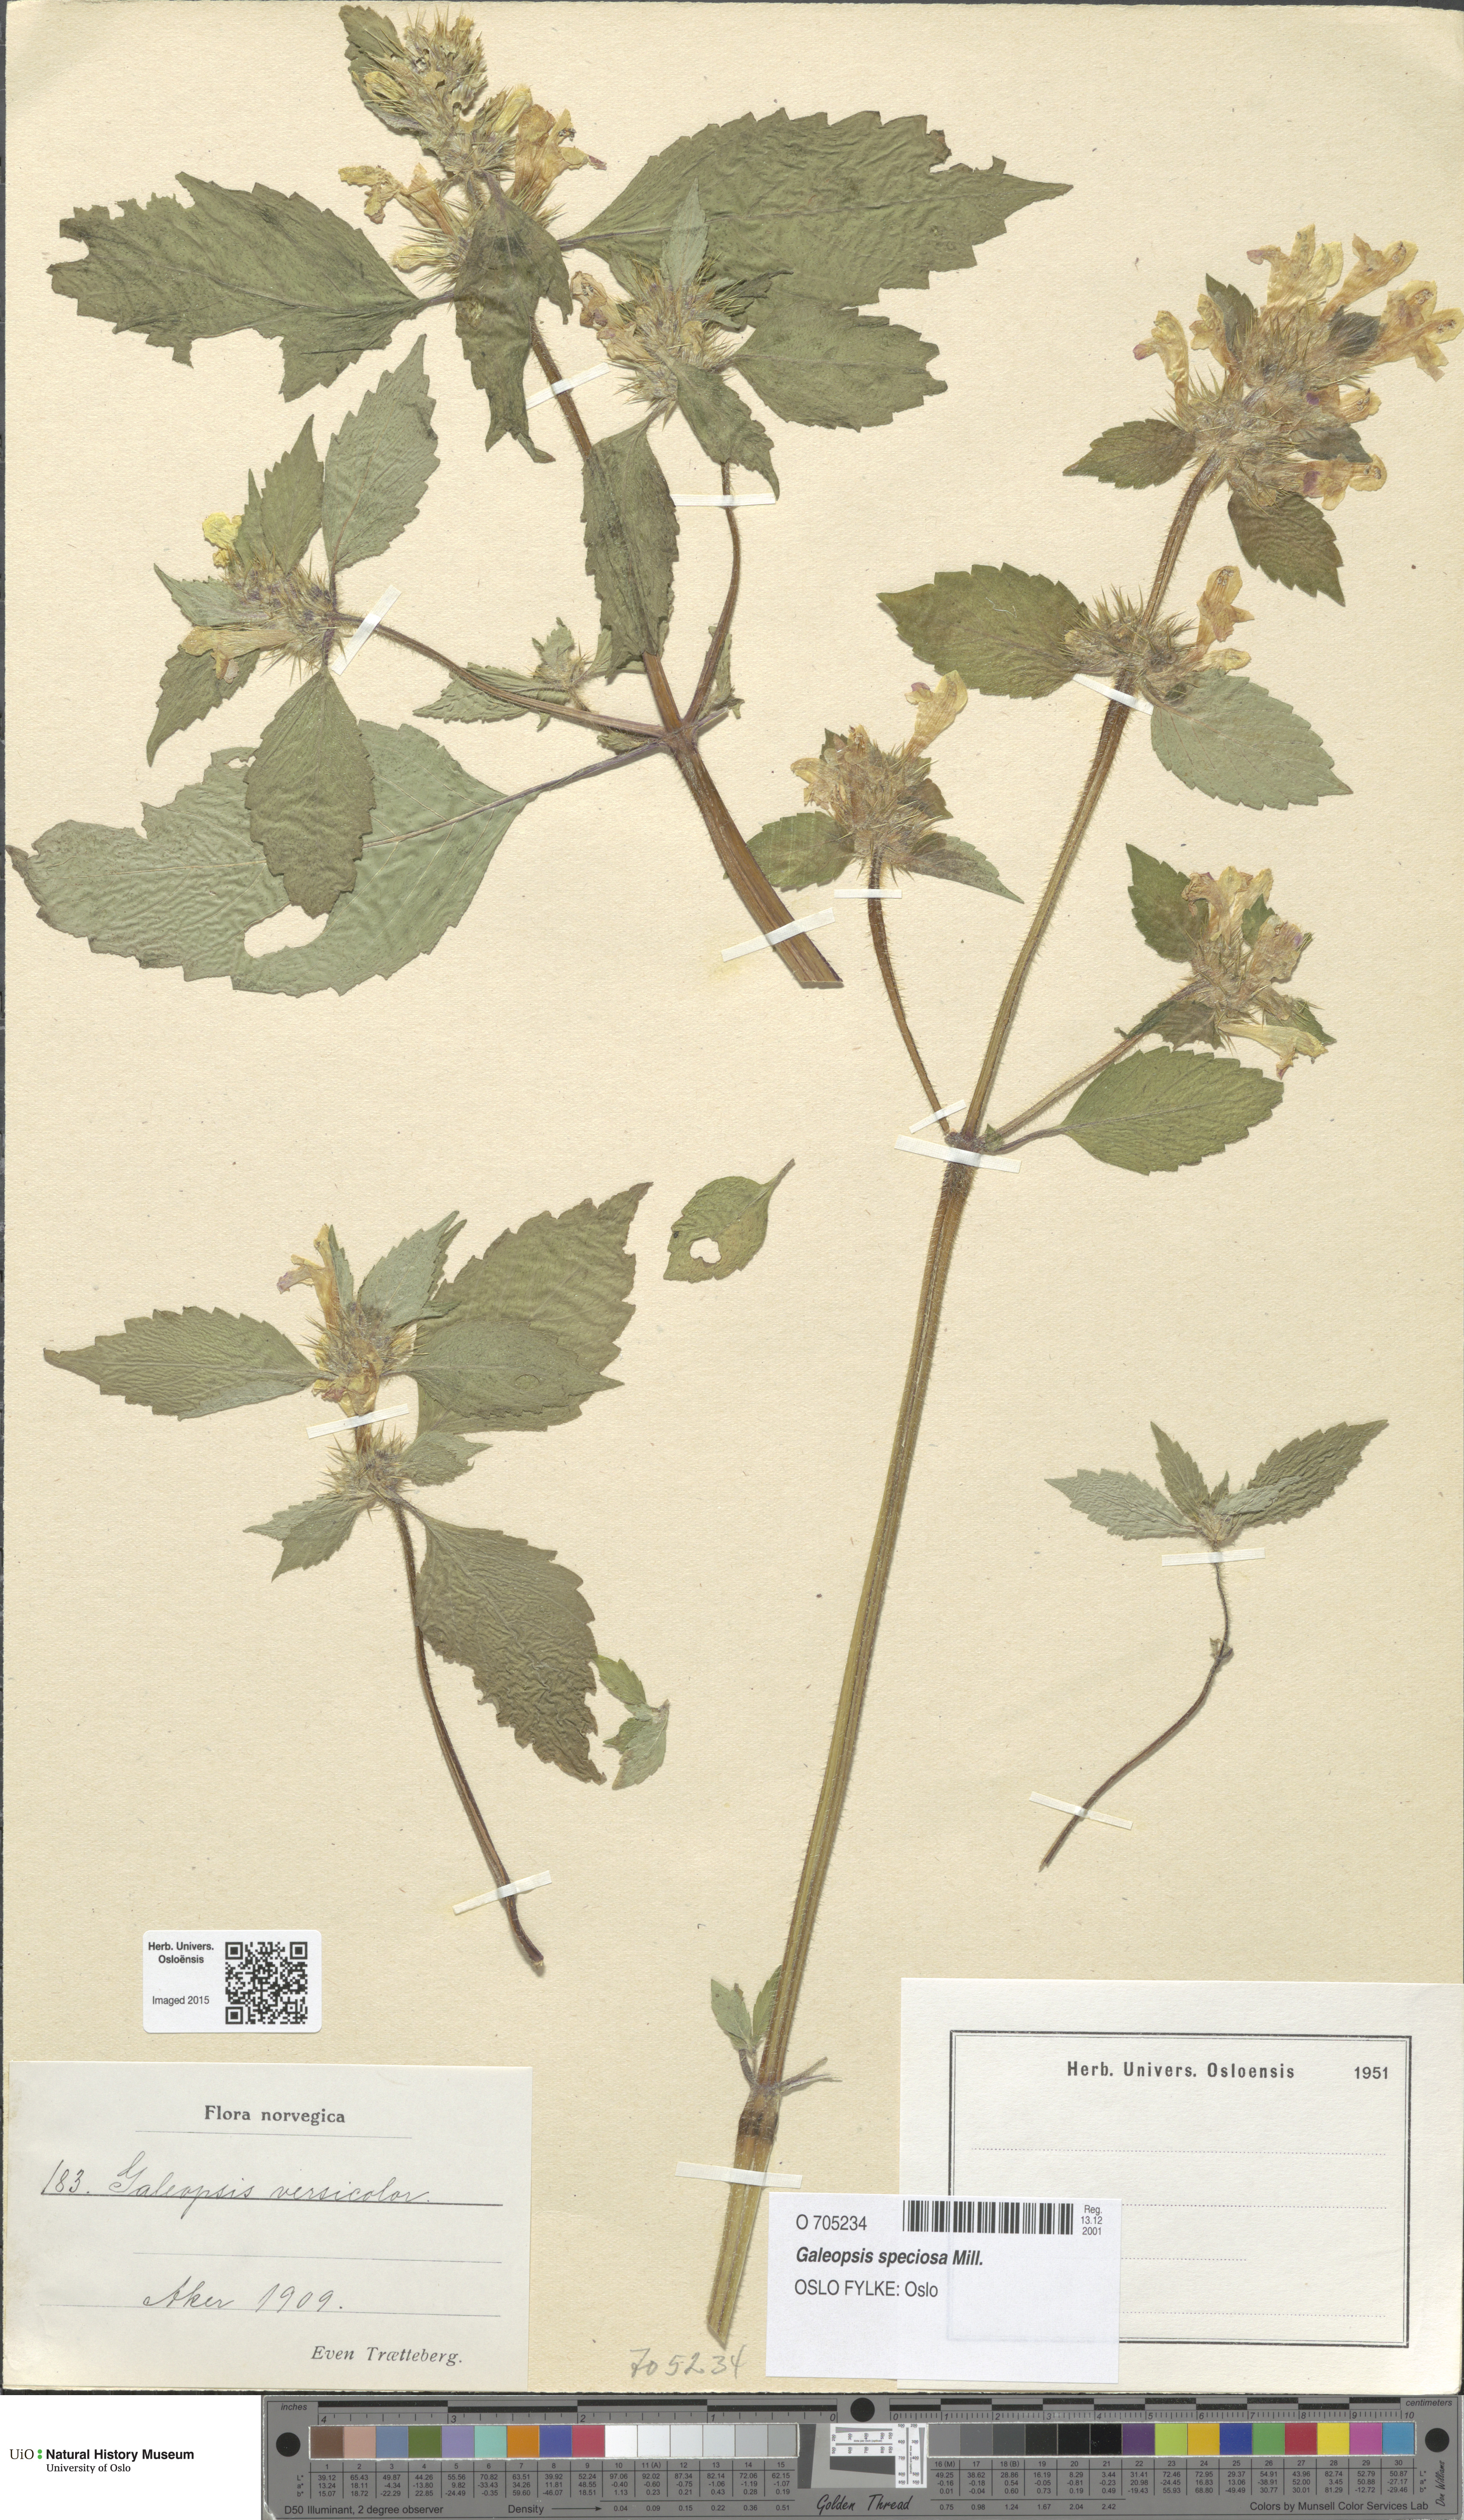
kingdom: Plantae
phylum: Tracheophyta
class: Magnoliopsida
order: Lamiales
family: Lamiaceae
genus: Galeopsis
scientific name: Galeopsis speciosa
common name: Large-flowered hemp-nettle
